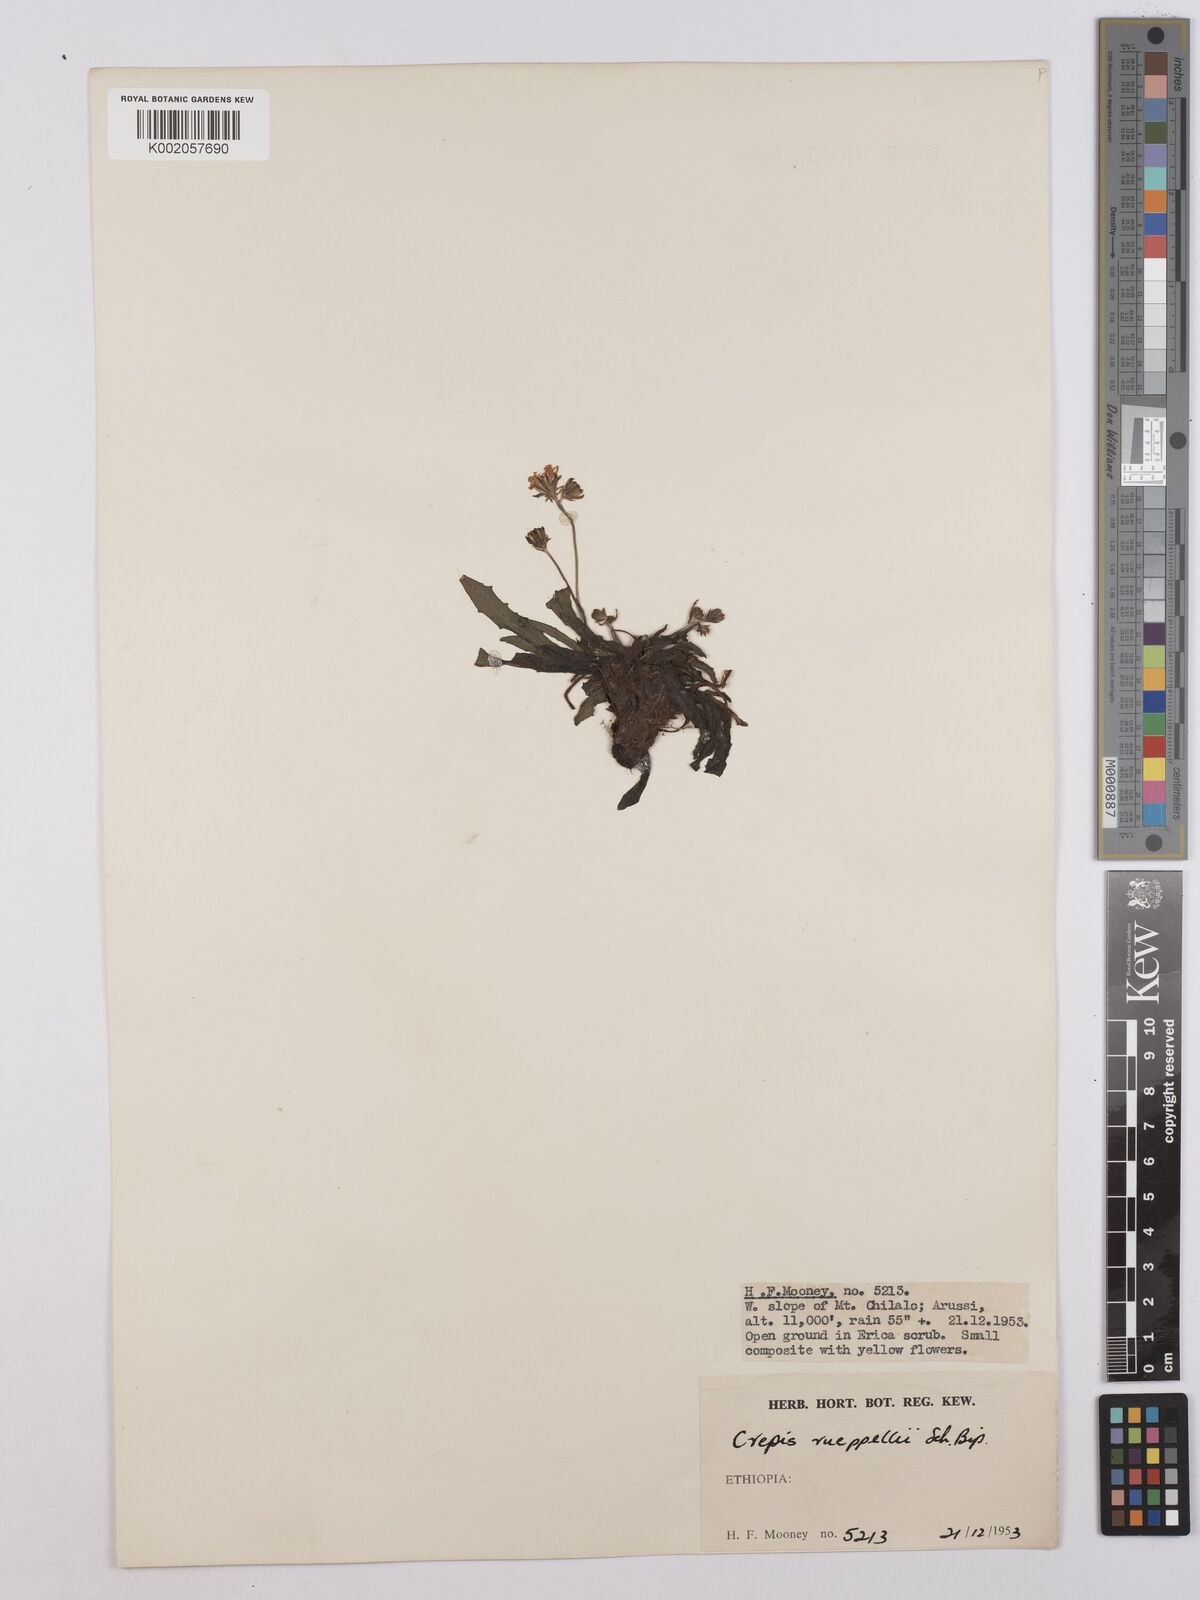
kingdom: Plantae
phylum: Tracheophyta
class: Magnoliopsida
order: Asterales
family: Asteraceae
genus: Crepis
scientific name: Crepis rueppellii
